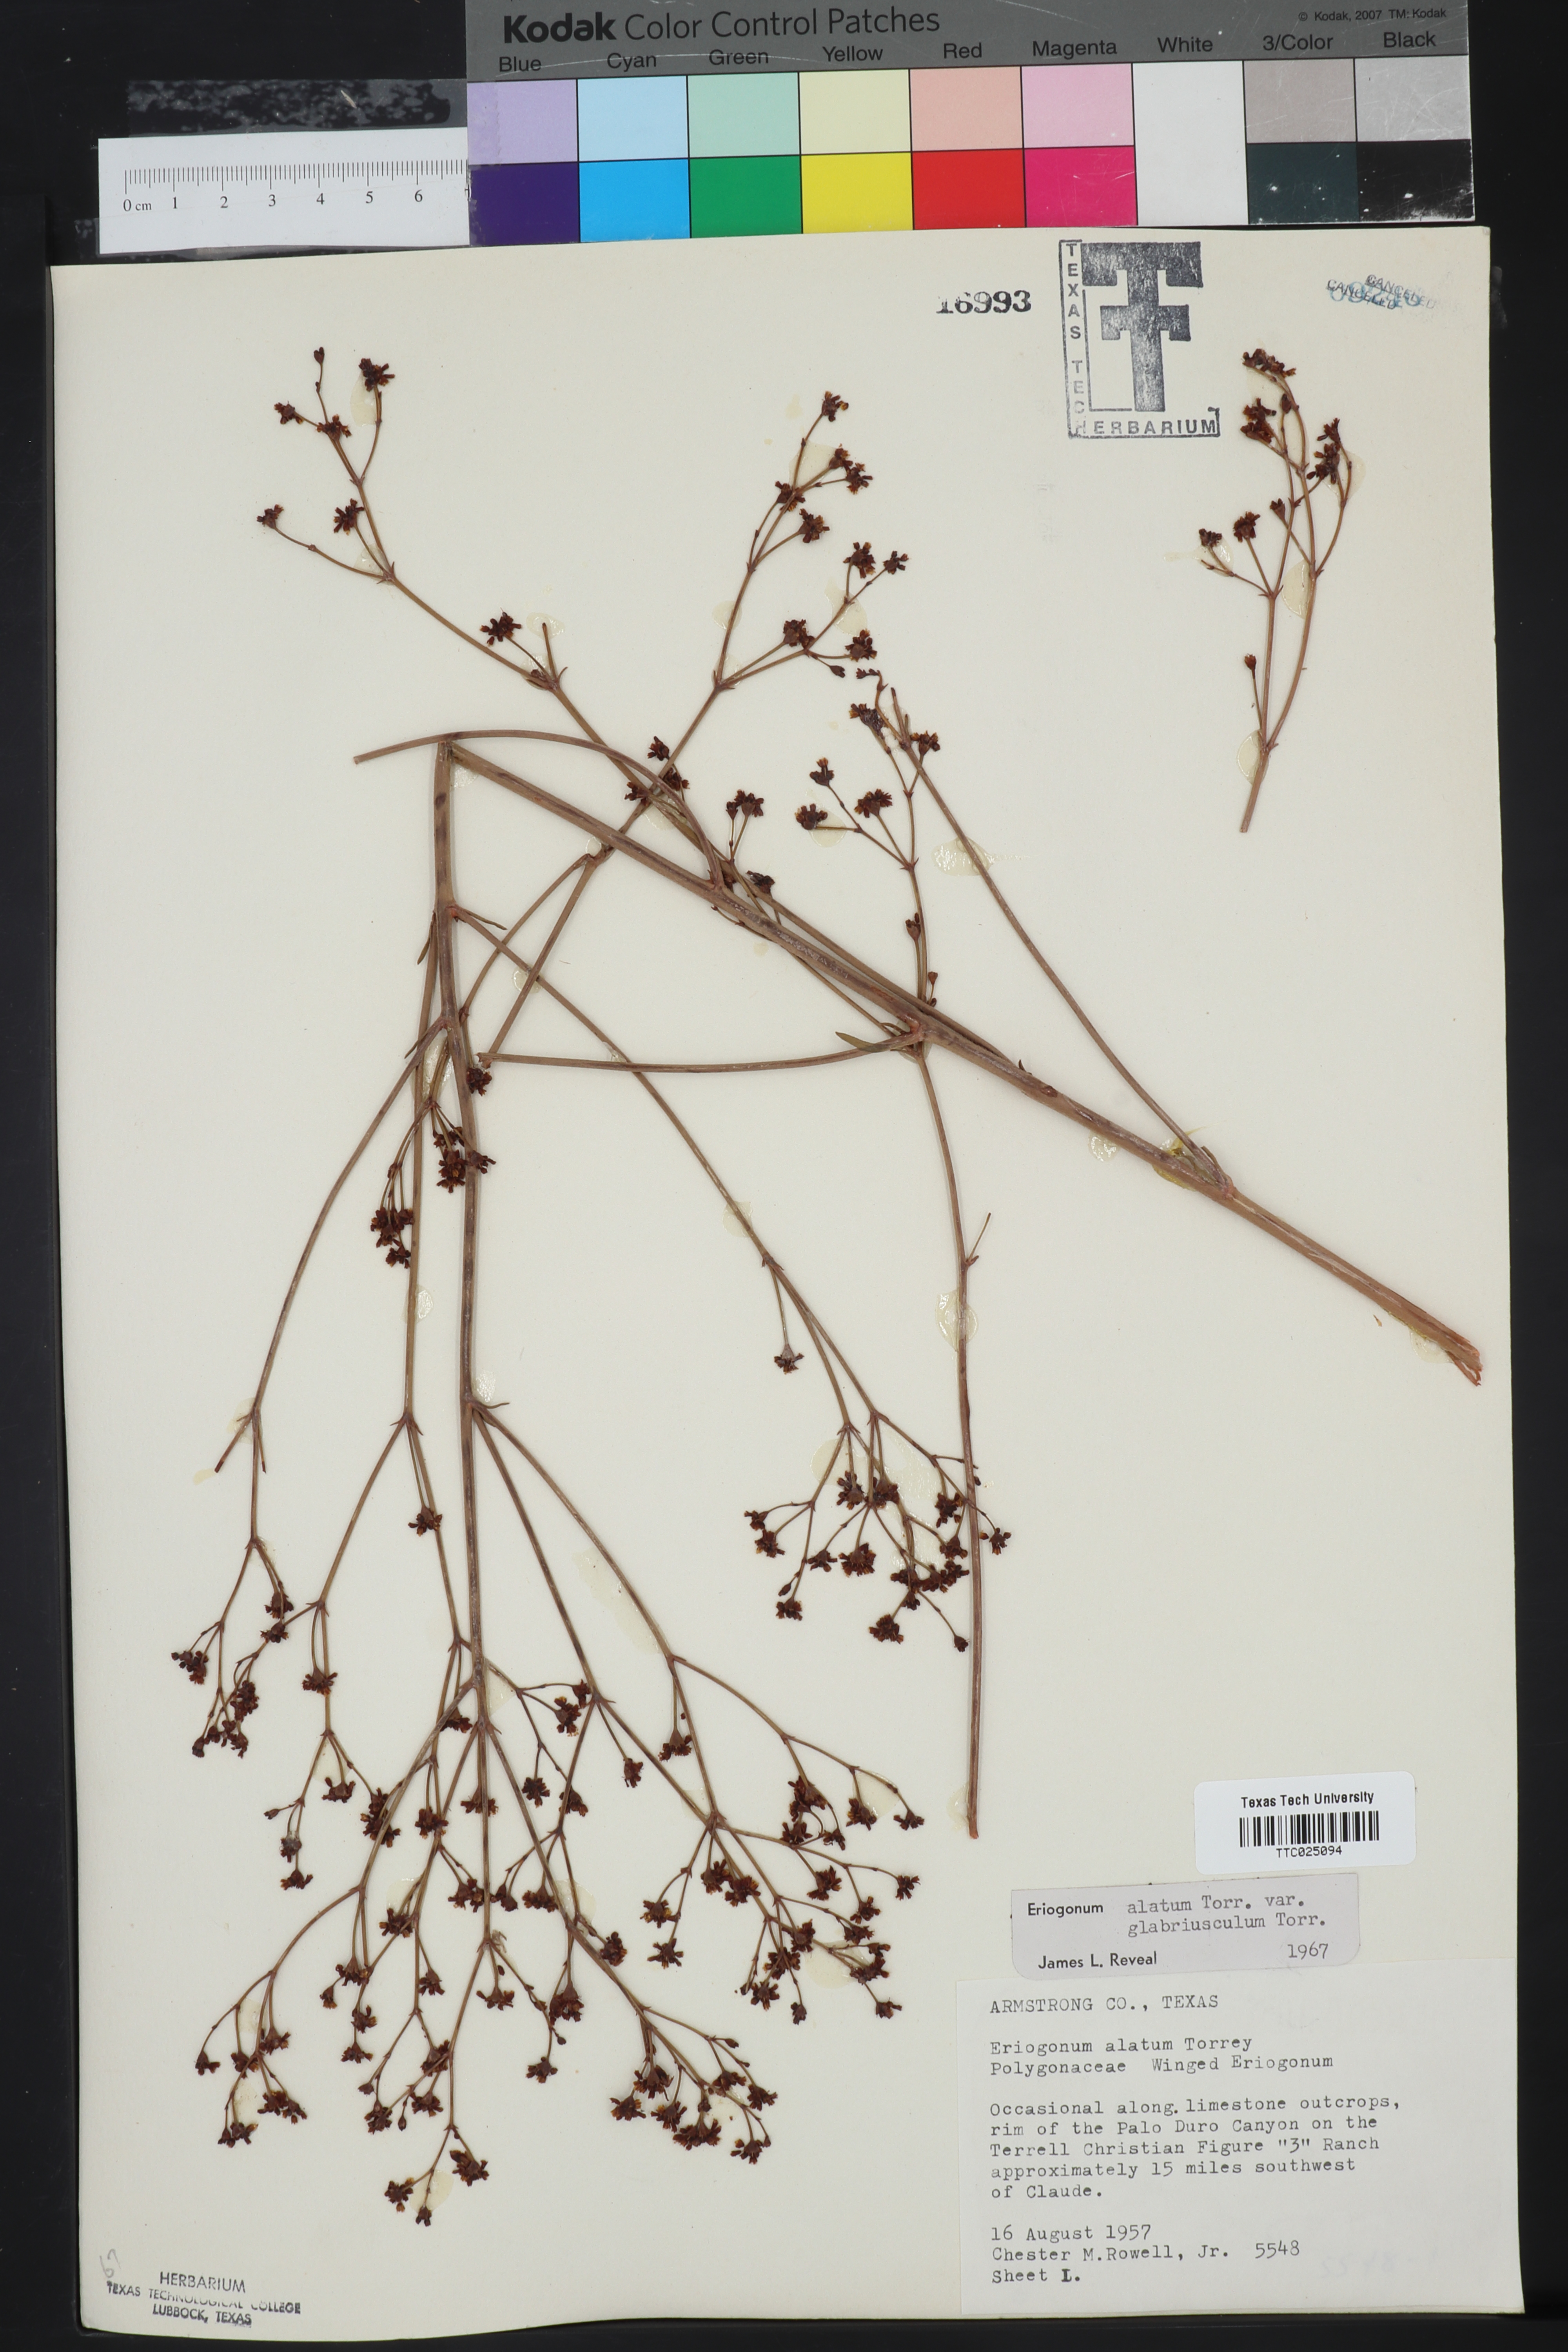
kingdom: Plantae
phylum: Tracheophyta
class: Magnoliopsida
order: Caryophyllales
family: Polygonaceae
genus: Eriogonum
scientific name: Eriogonum alatum
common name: Winged eriogonum
